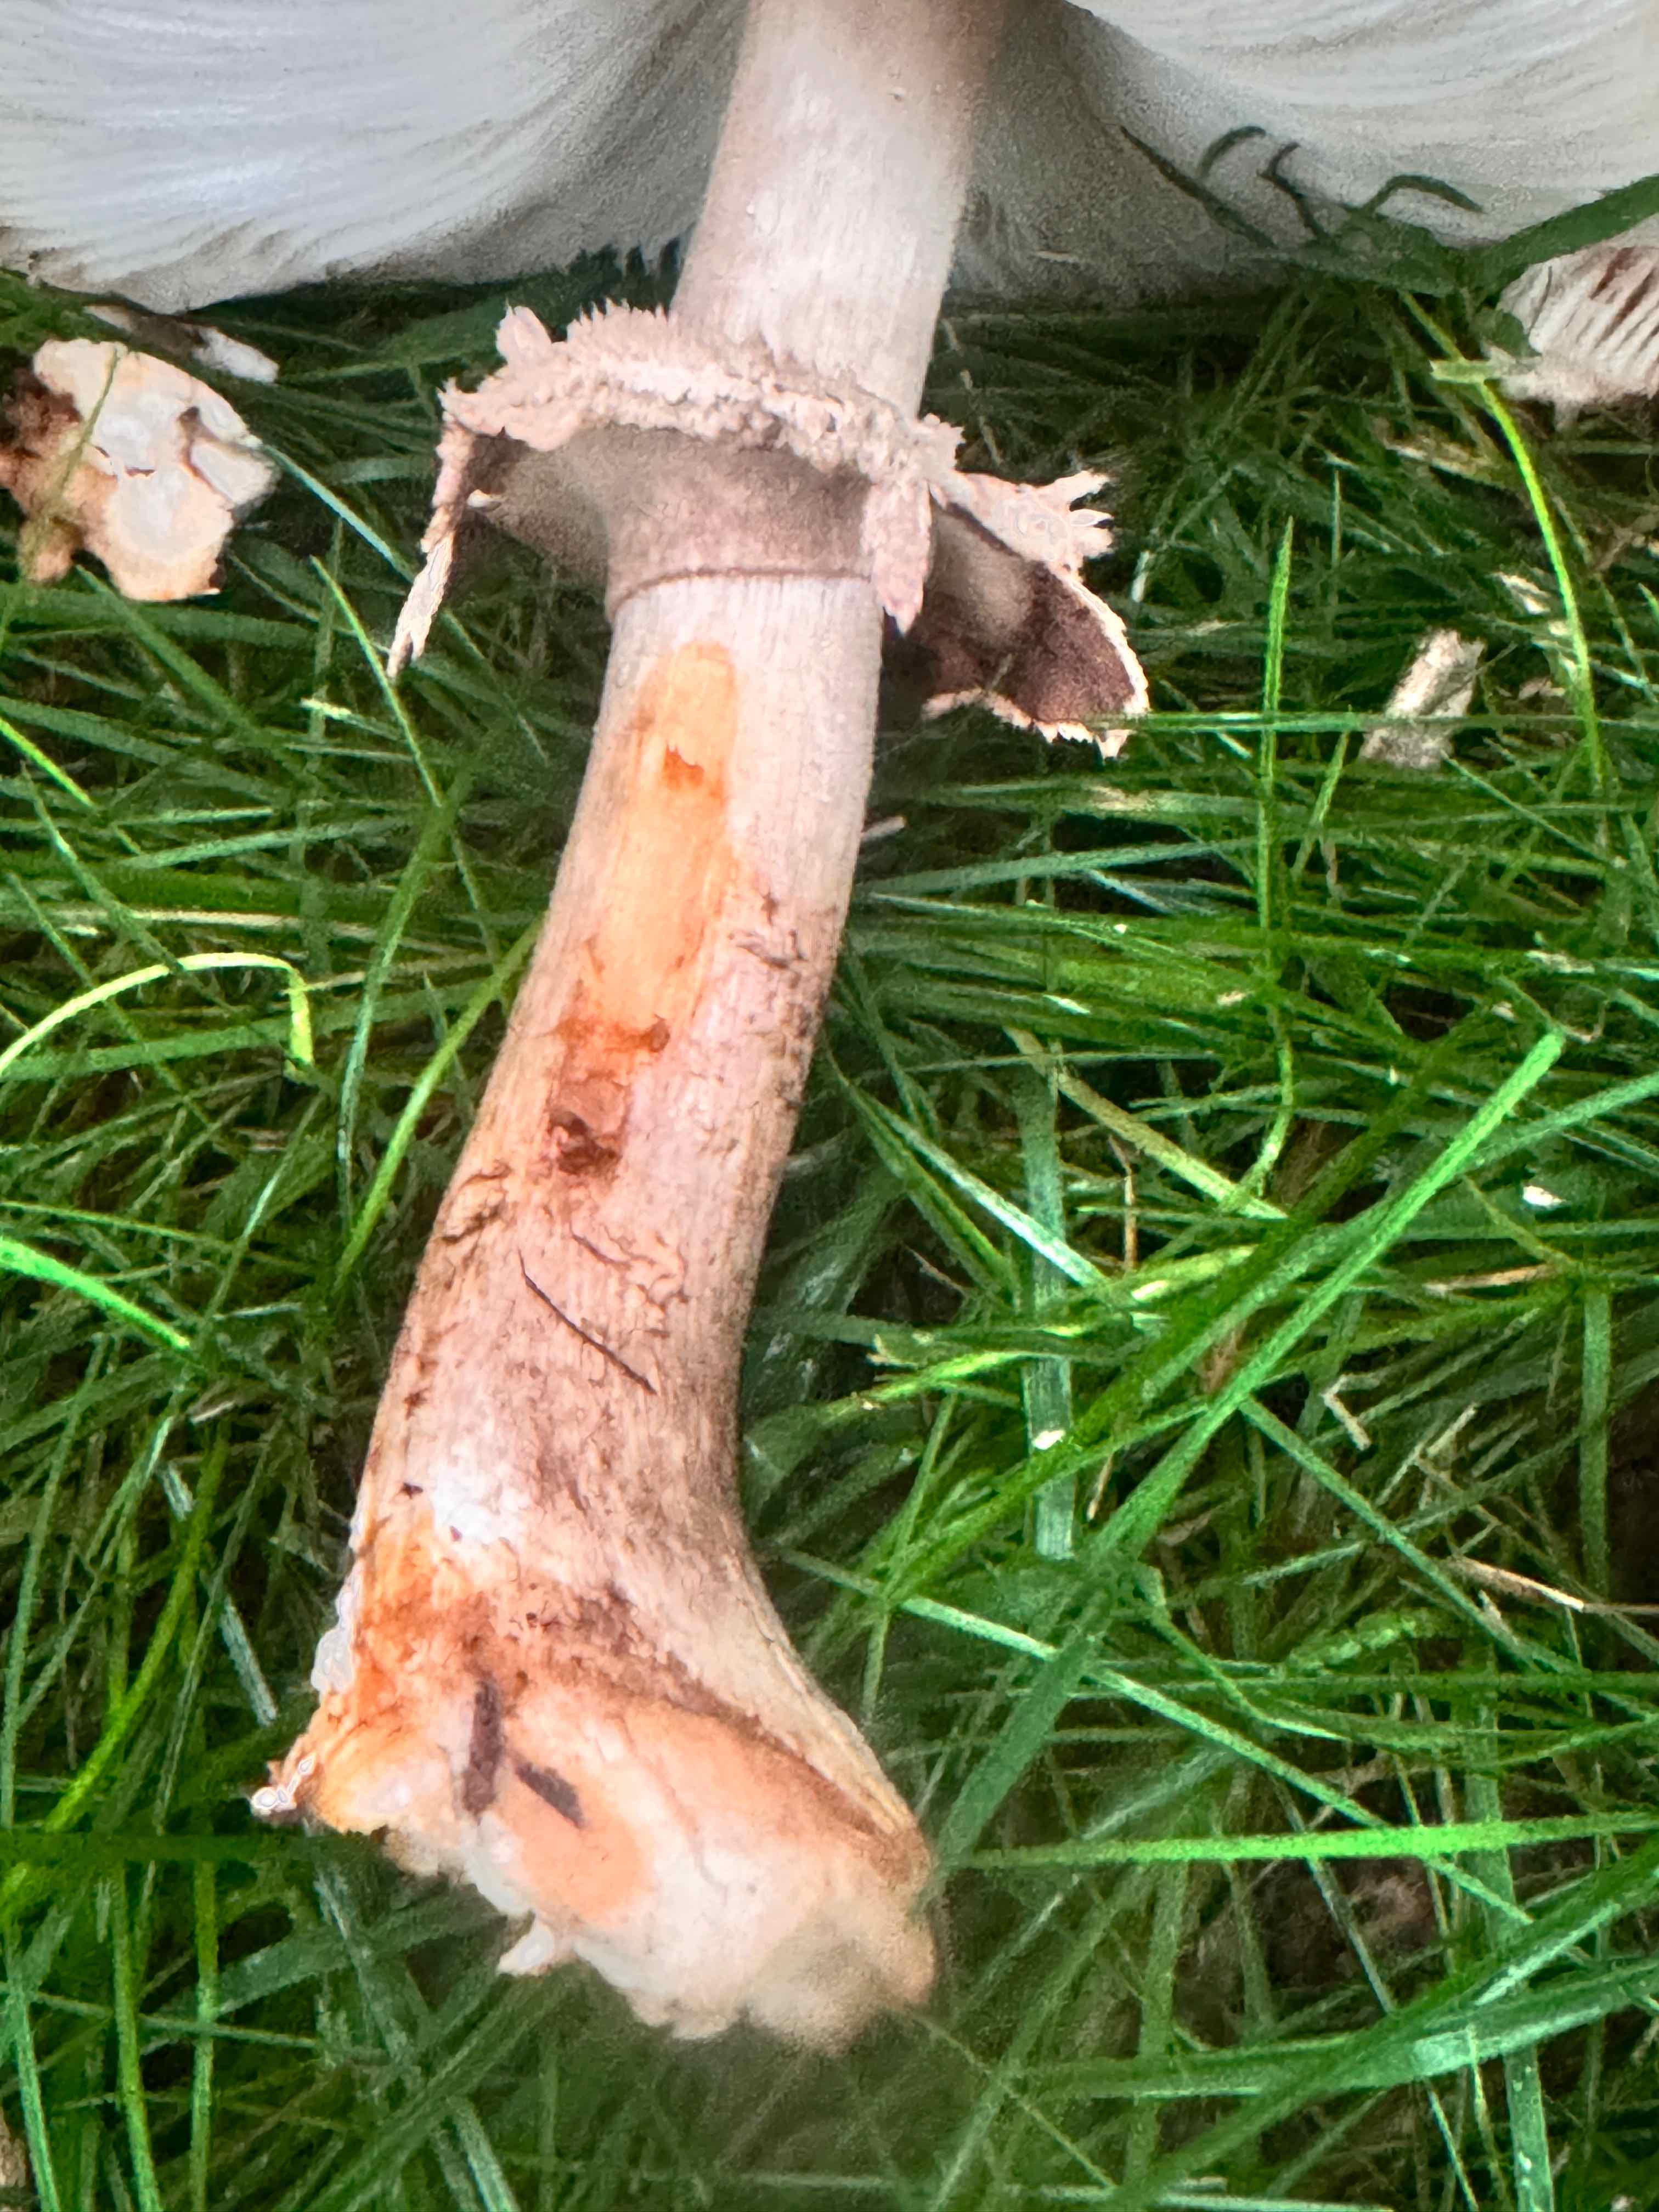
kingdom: Fungi
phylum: Basidiomycota
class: Agaricomycetes
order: Agaricales
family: Agaricaceae
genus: Chlorophyllum
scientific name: Chlorophyllum rhacodes
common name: ægte rabarberhat
